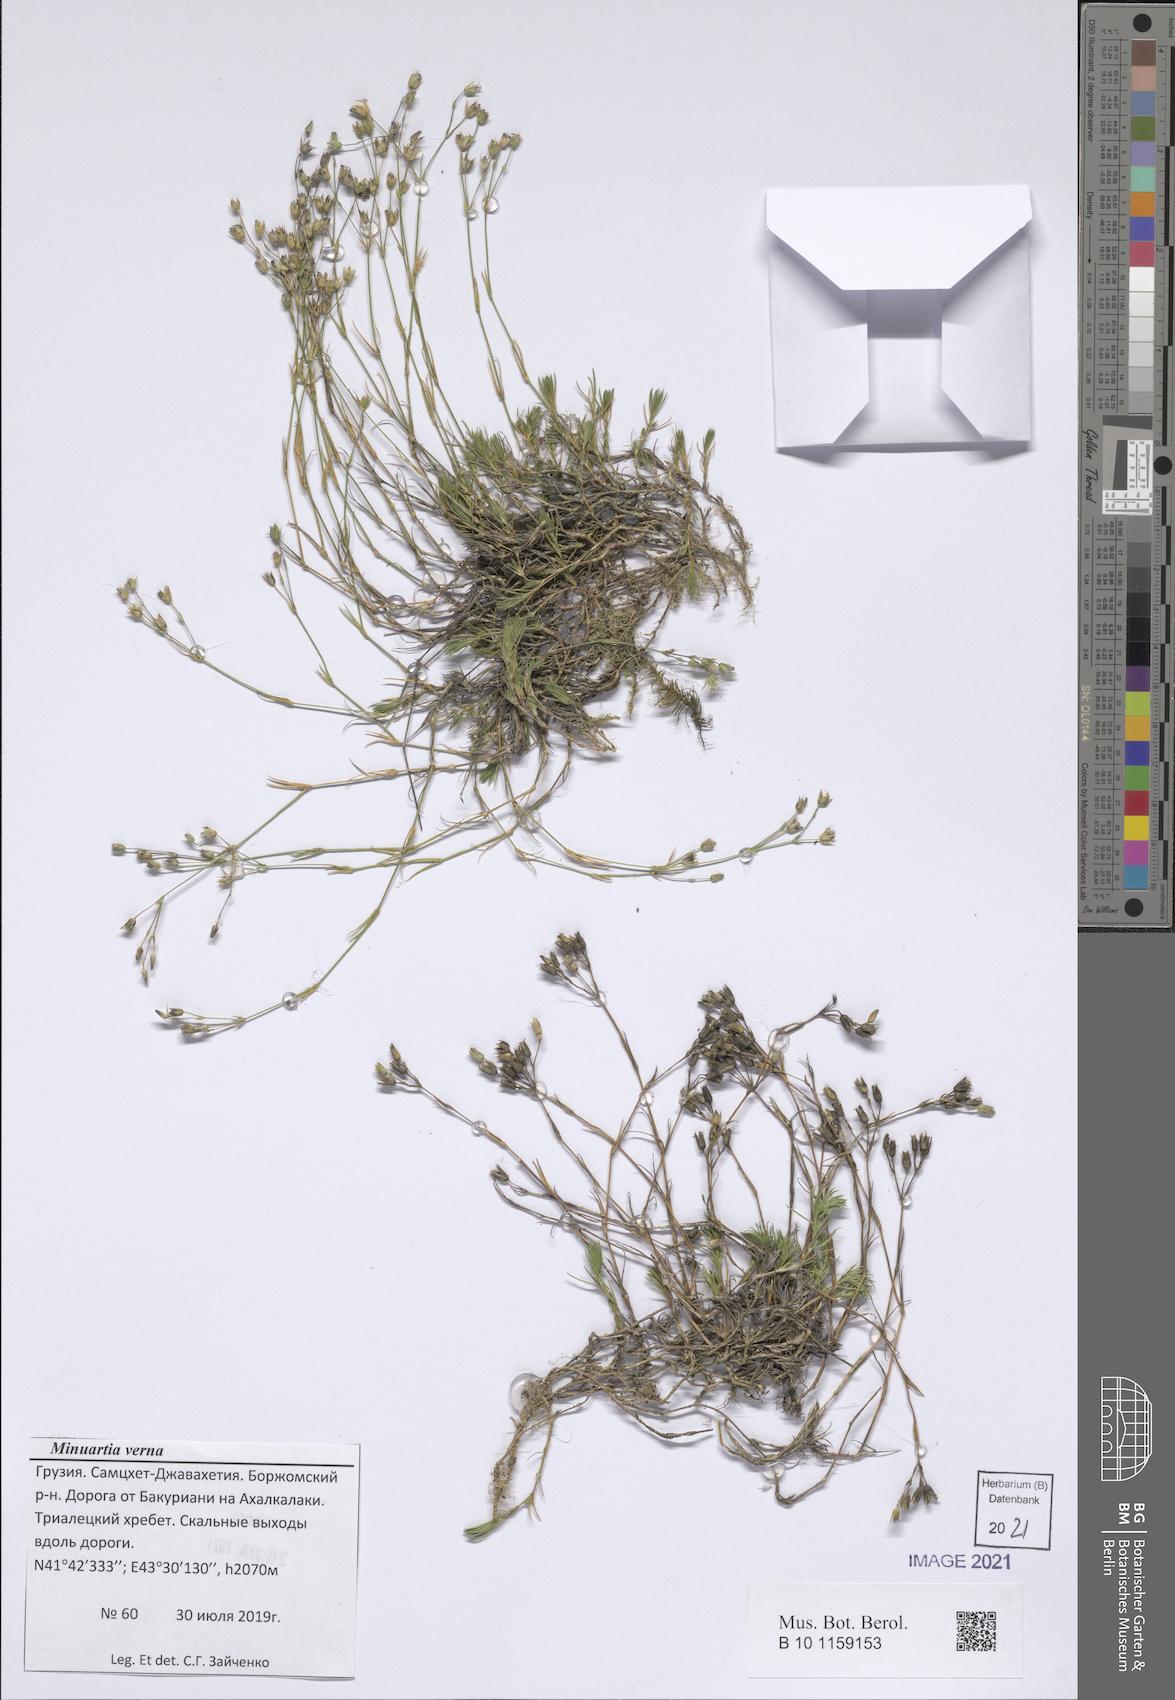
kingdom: Plantae
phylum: Tracheophyta
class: Magnoliopsida
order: Caryophyllales
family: Caryophyllaceae
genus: Sabulina
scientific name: Sabulina verna
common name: Spring sandwort
